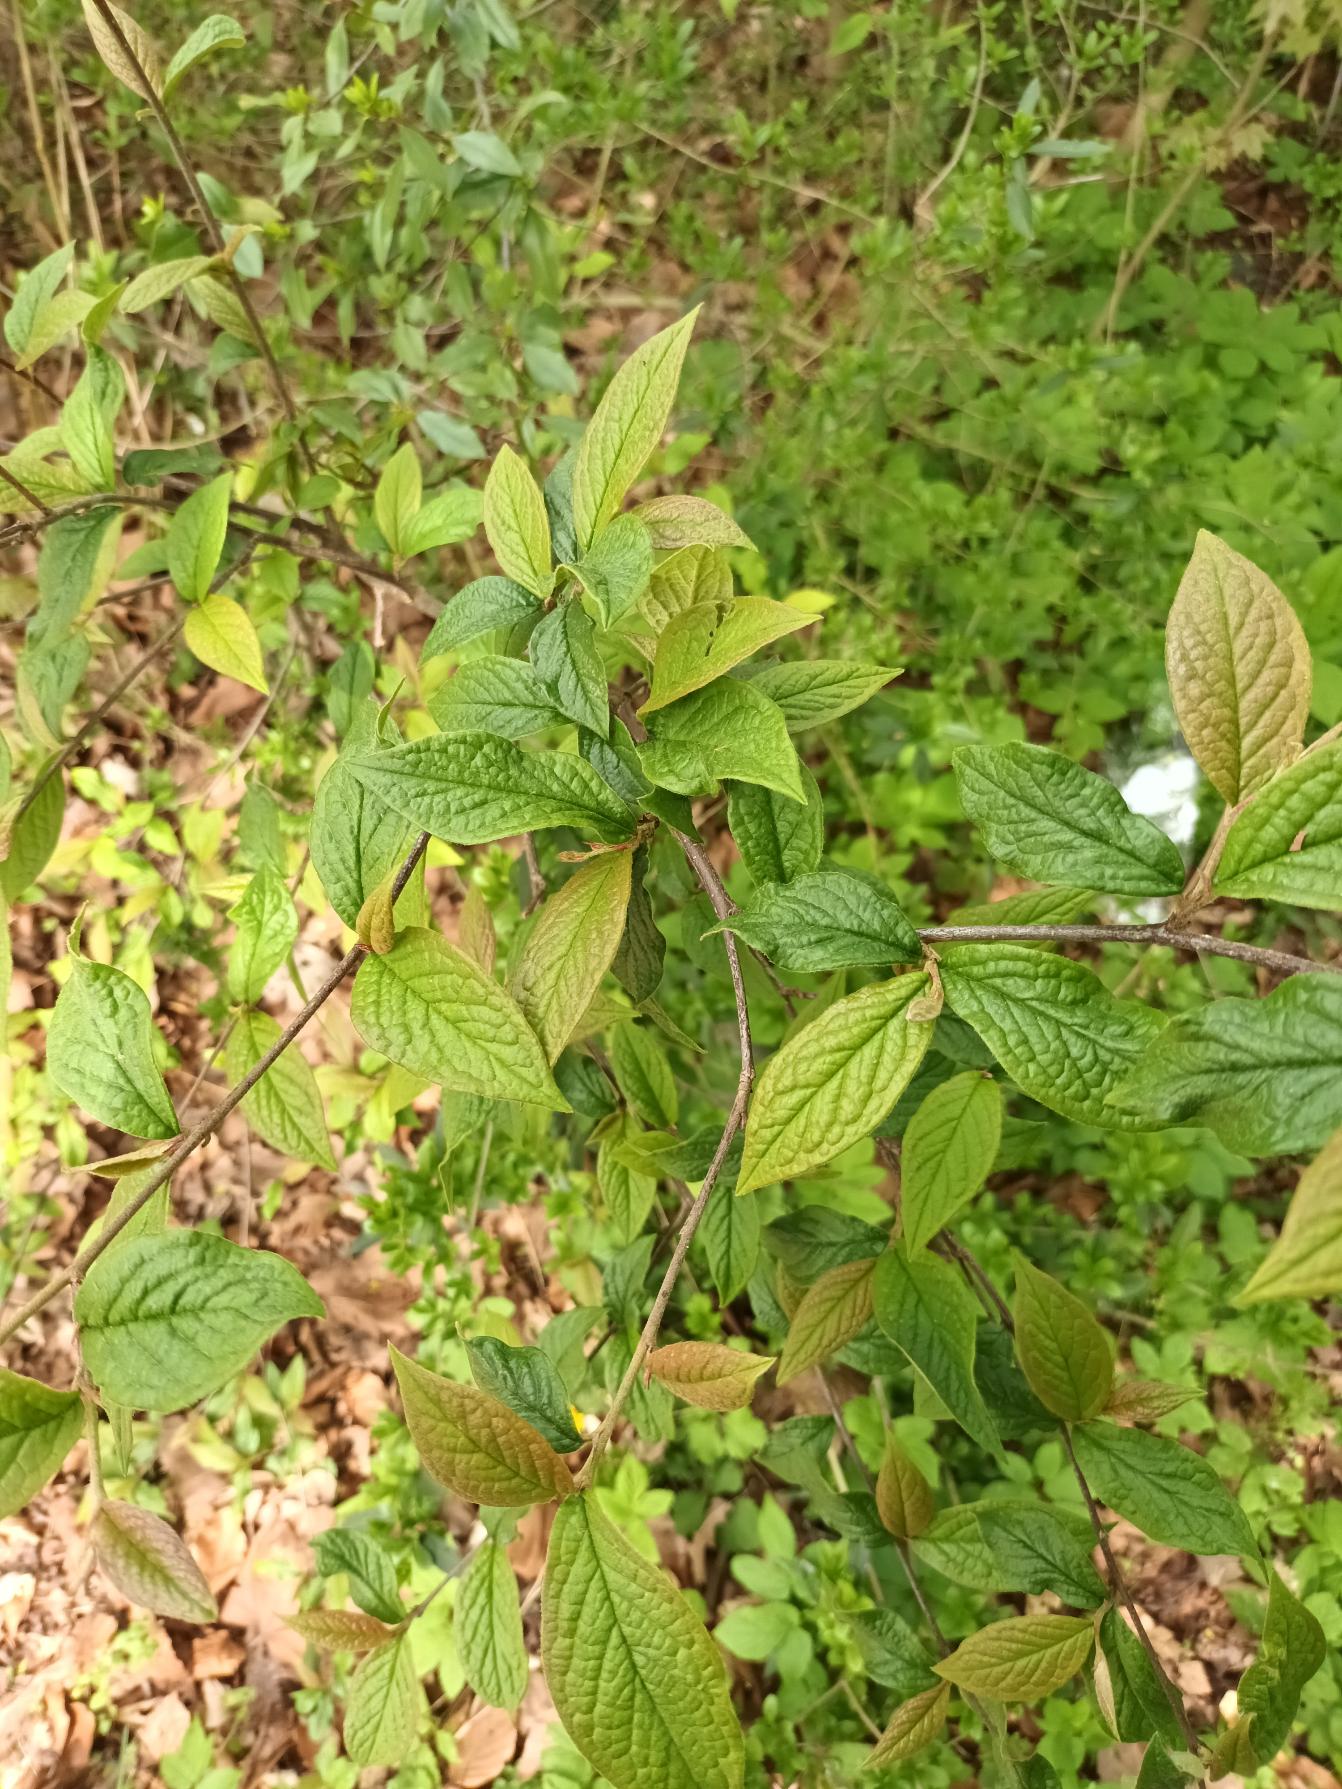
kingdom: Plantae
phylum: Tracheophyta
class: Magnoliopsida
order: Rosales
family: Rosaceae
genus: Cotoneaster
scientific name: Cotoneaster bullatus
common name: Storbladet dværgmispel
